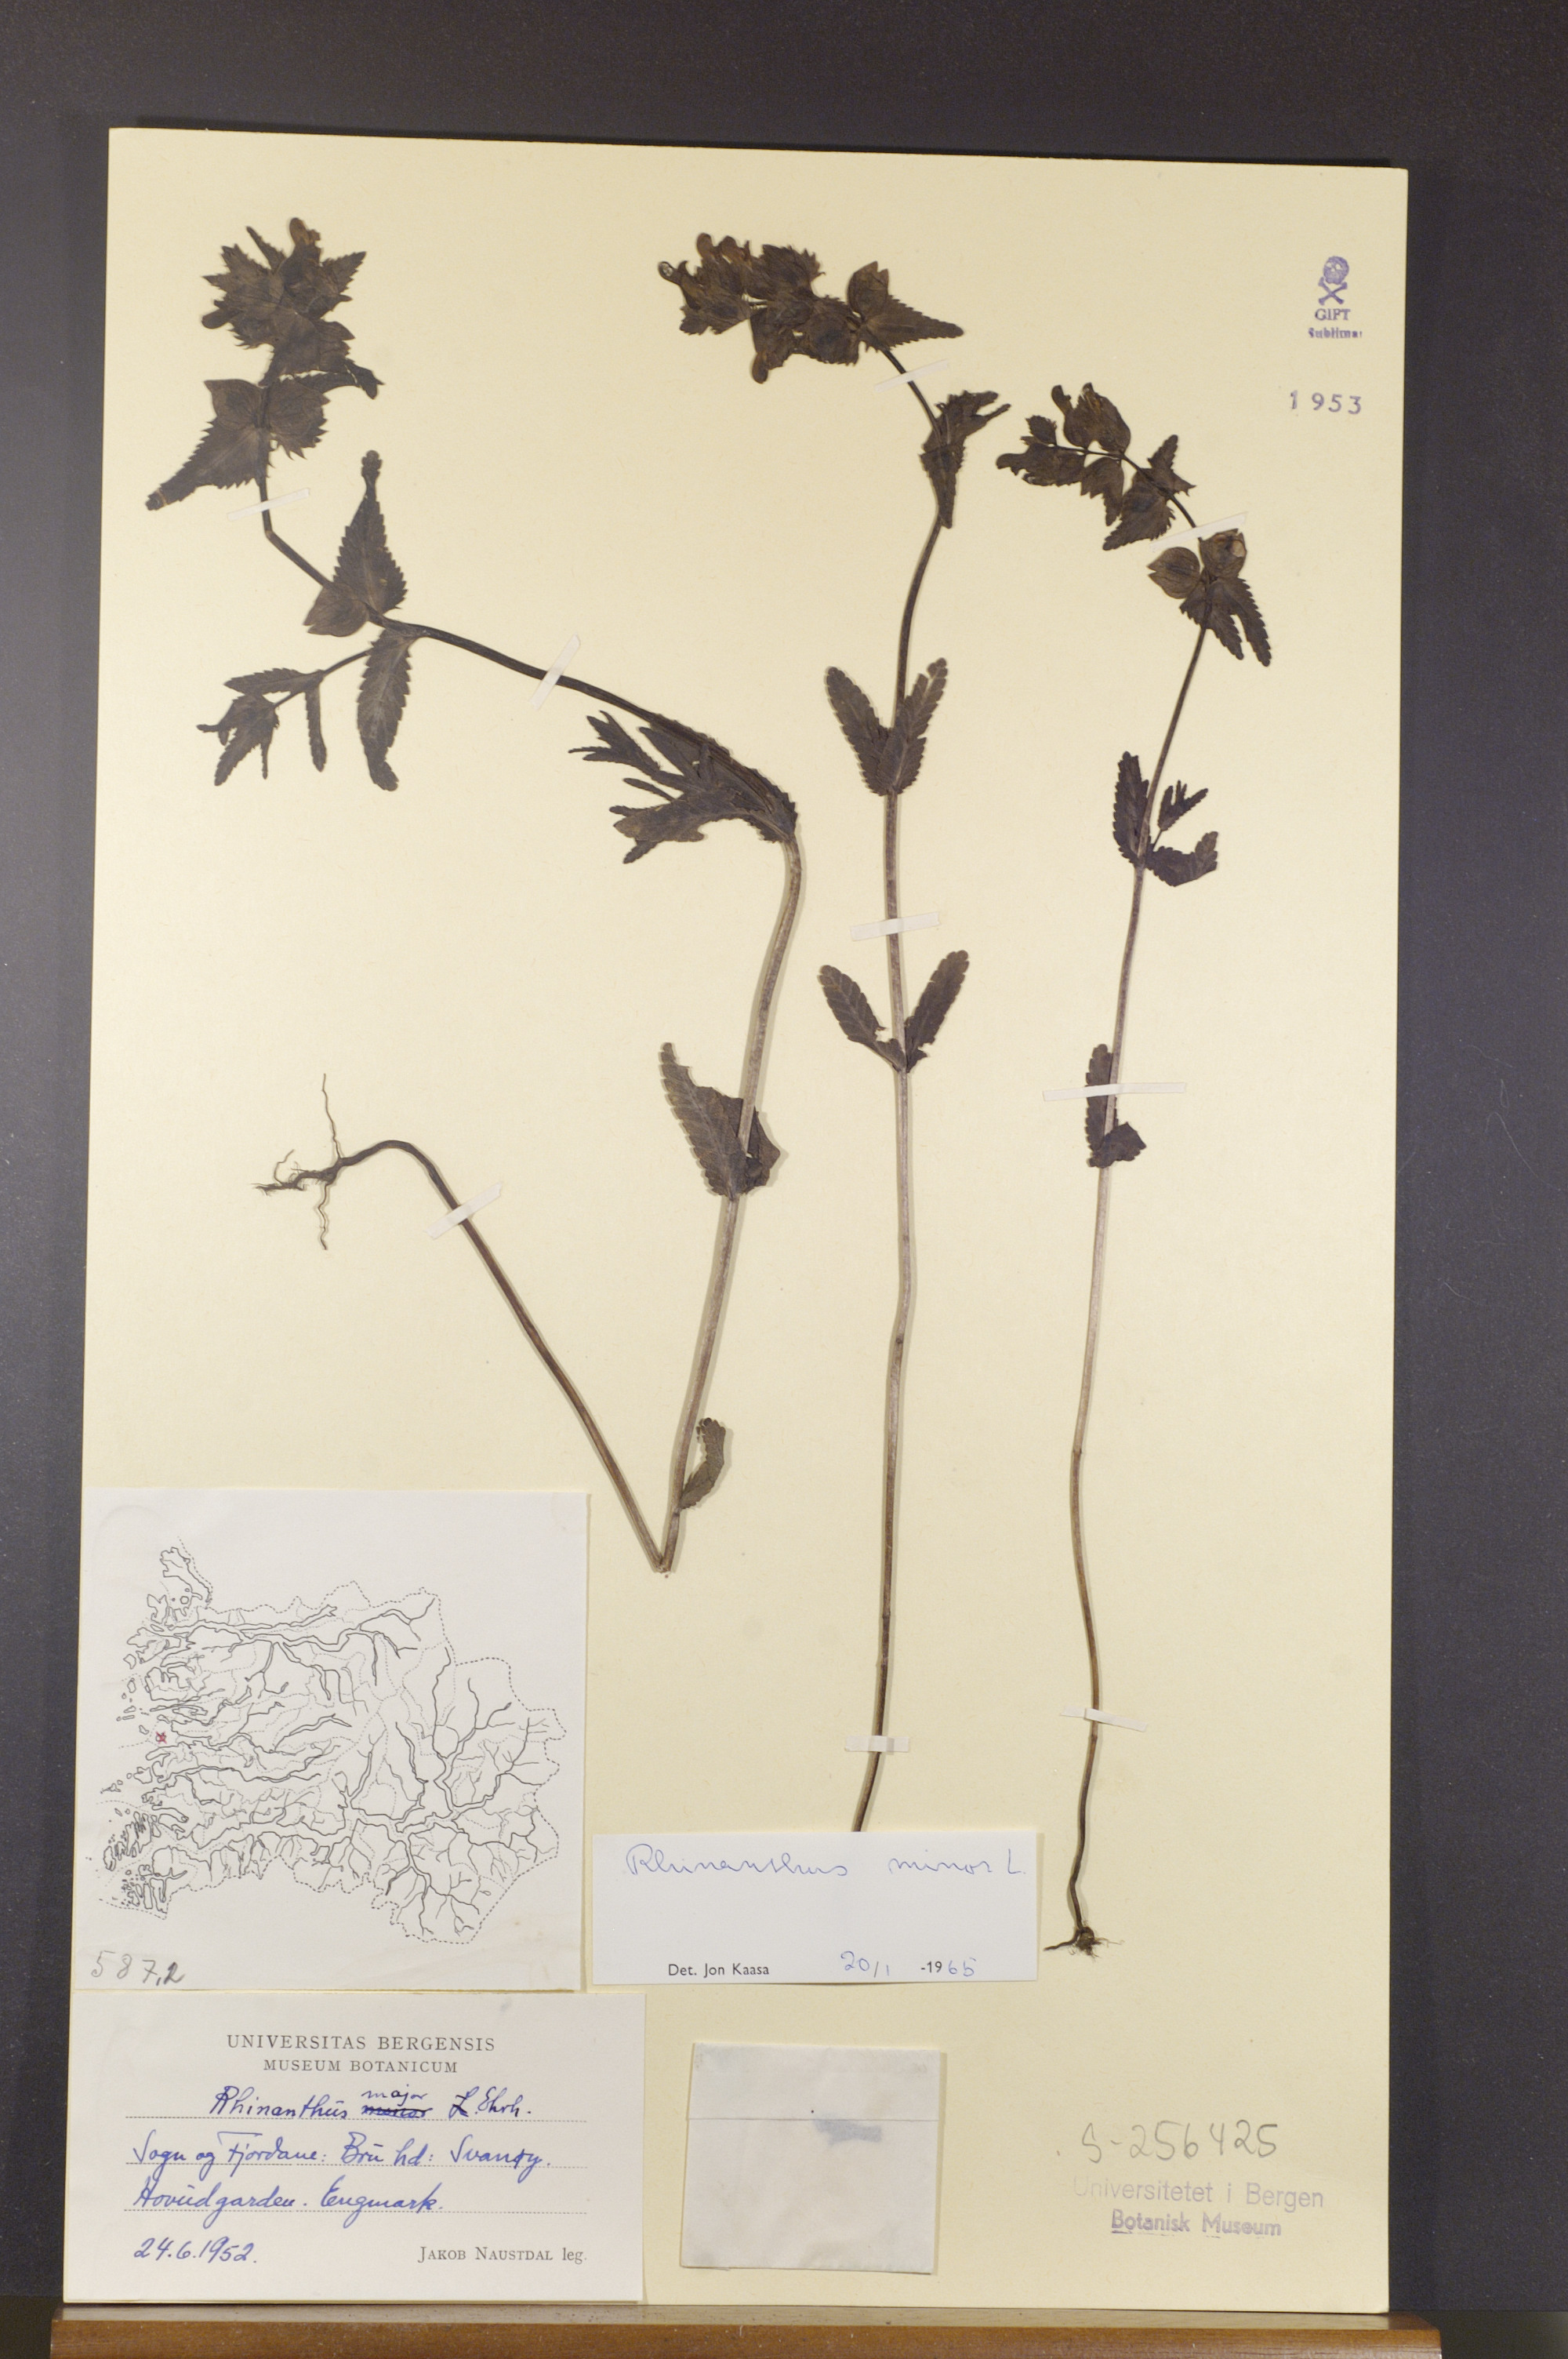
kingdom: Plantae
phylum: Tracheophyta
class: Magnoliopsida
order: Lamiales
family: Orobanchaceae
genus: Rhinanthus
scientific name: Rhinanthus minor
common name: Yellow-rattle
